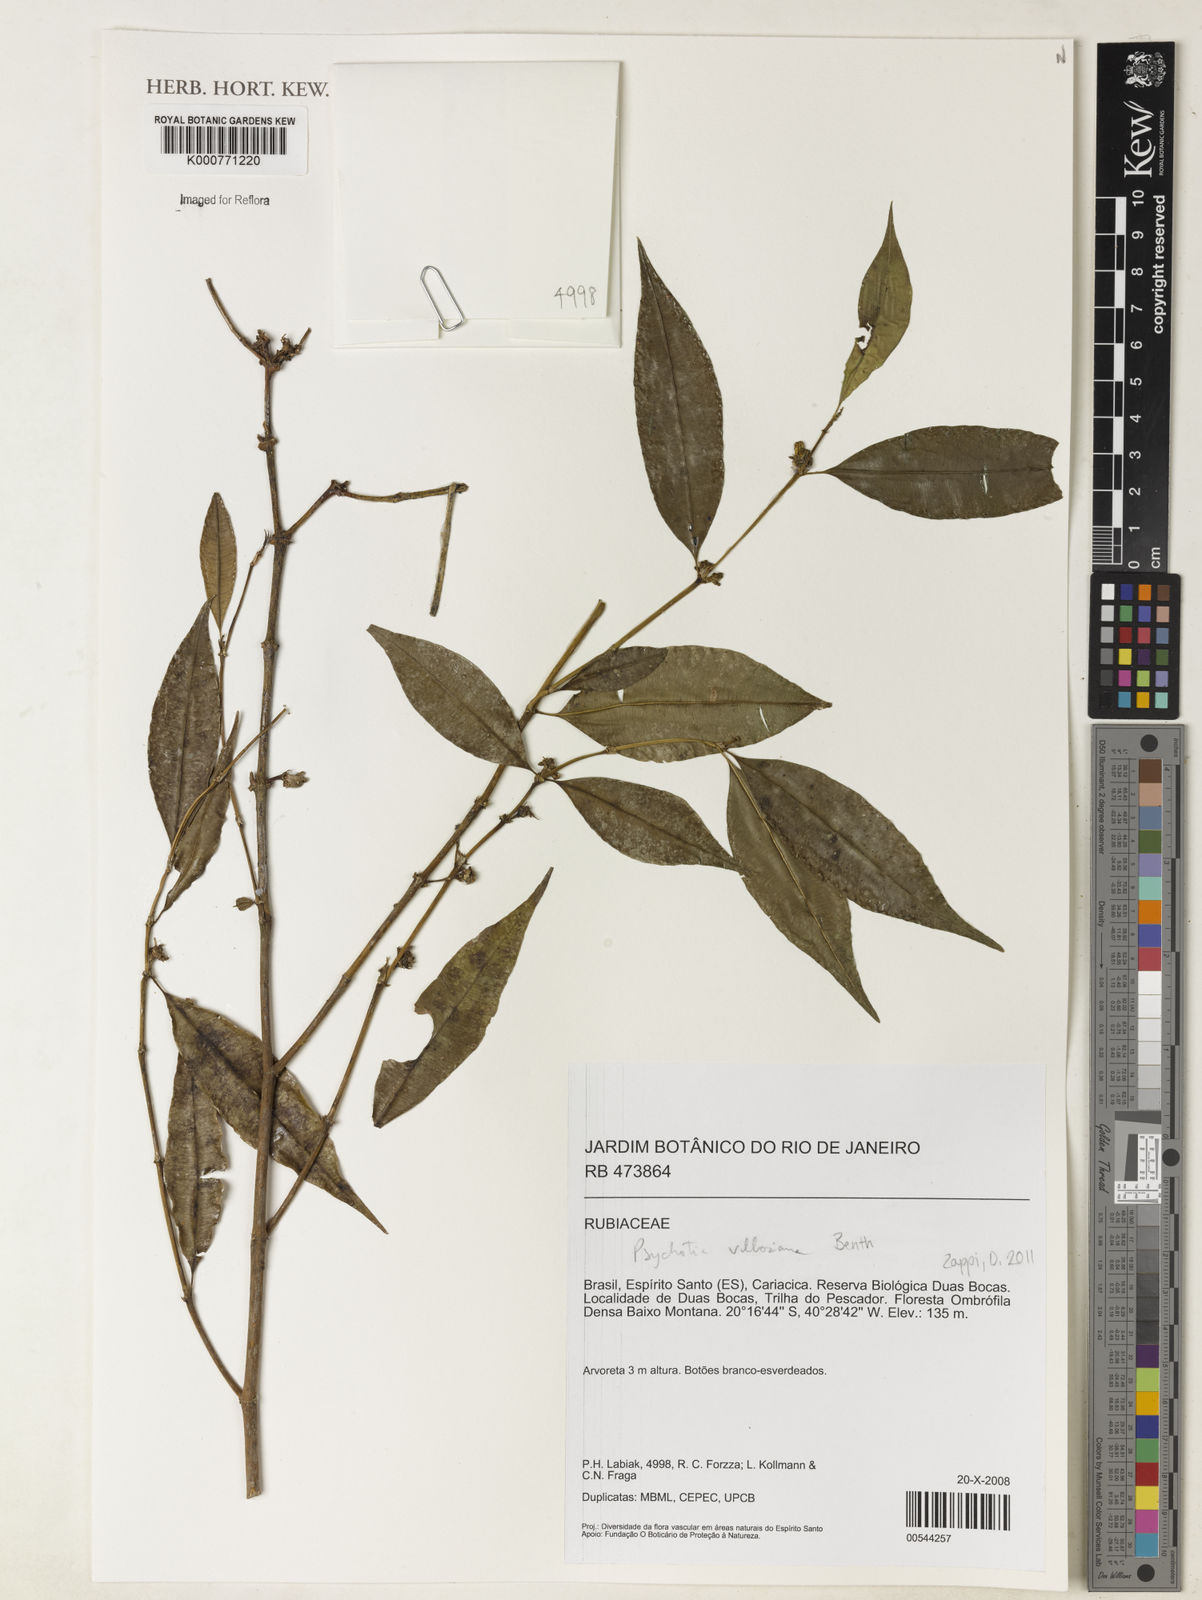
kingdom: Plantae
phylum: Tracheophyta
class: Magnoliopsida
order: Gentianales
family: Rubiaceae
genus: Palicourea
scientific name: Palicourea sessilis
